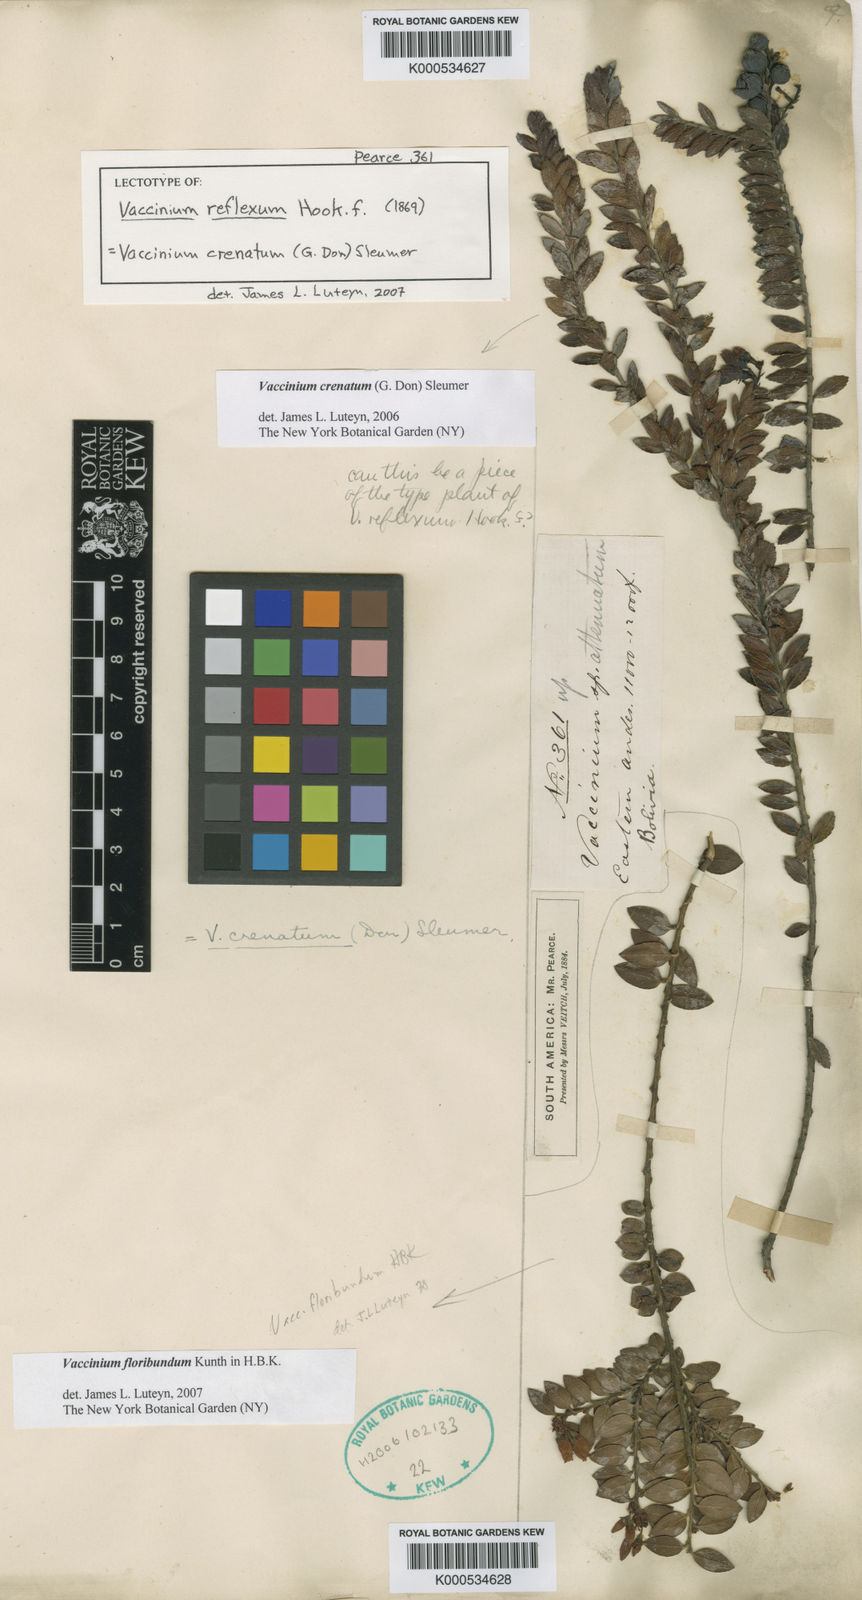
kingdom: Plantae
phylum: Tracheophyta
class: Magnoliopsida
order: Ericales
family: Ericaceae
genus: Vaccinium
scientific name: Vaccinium crenatum
